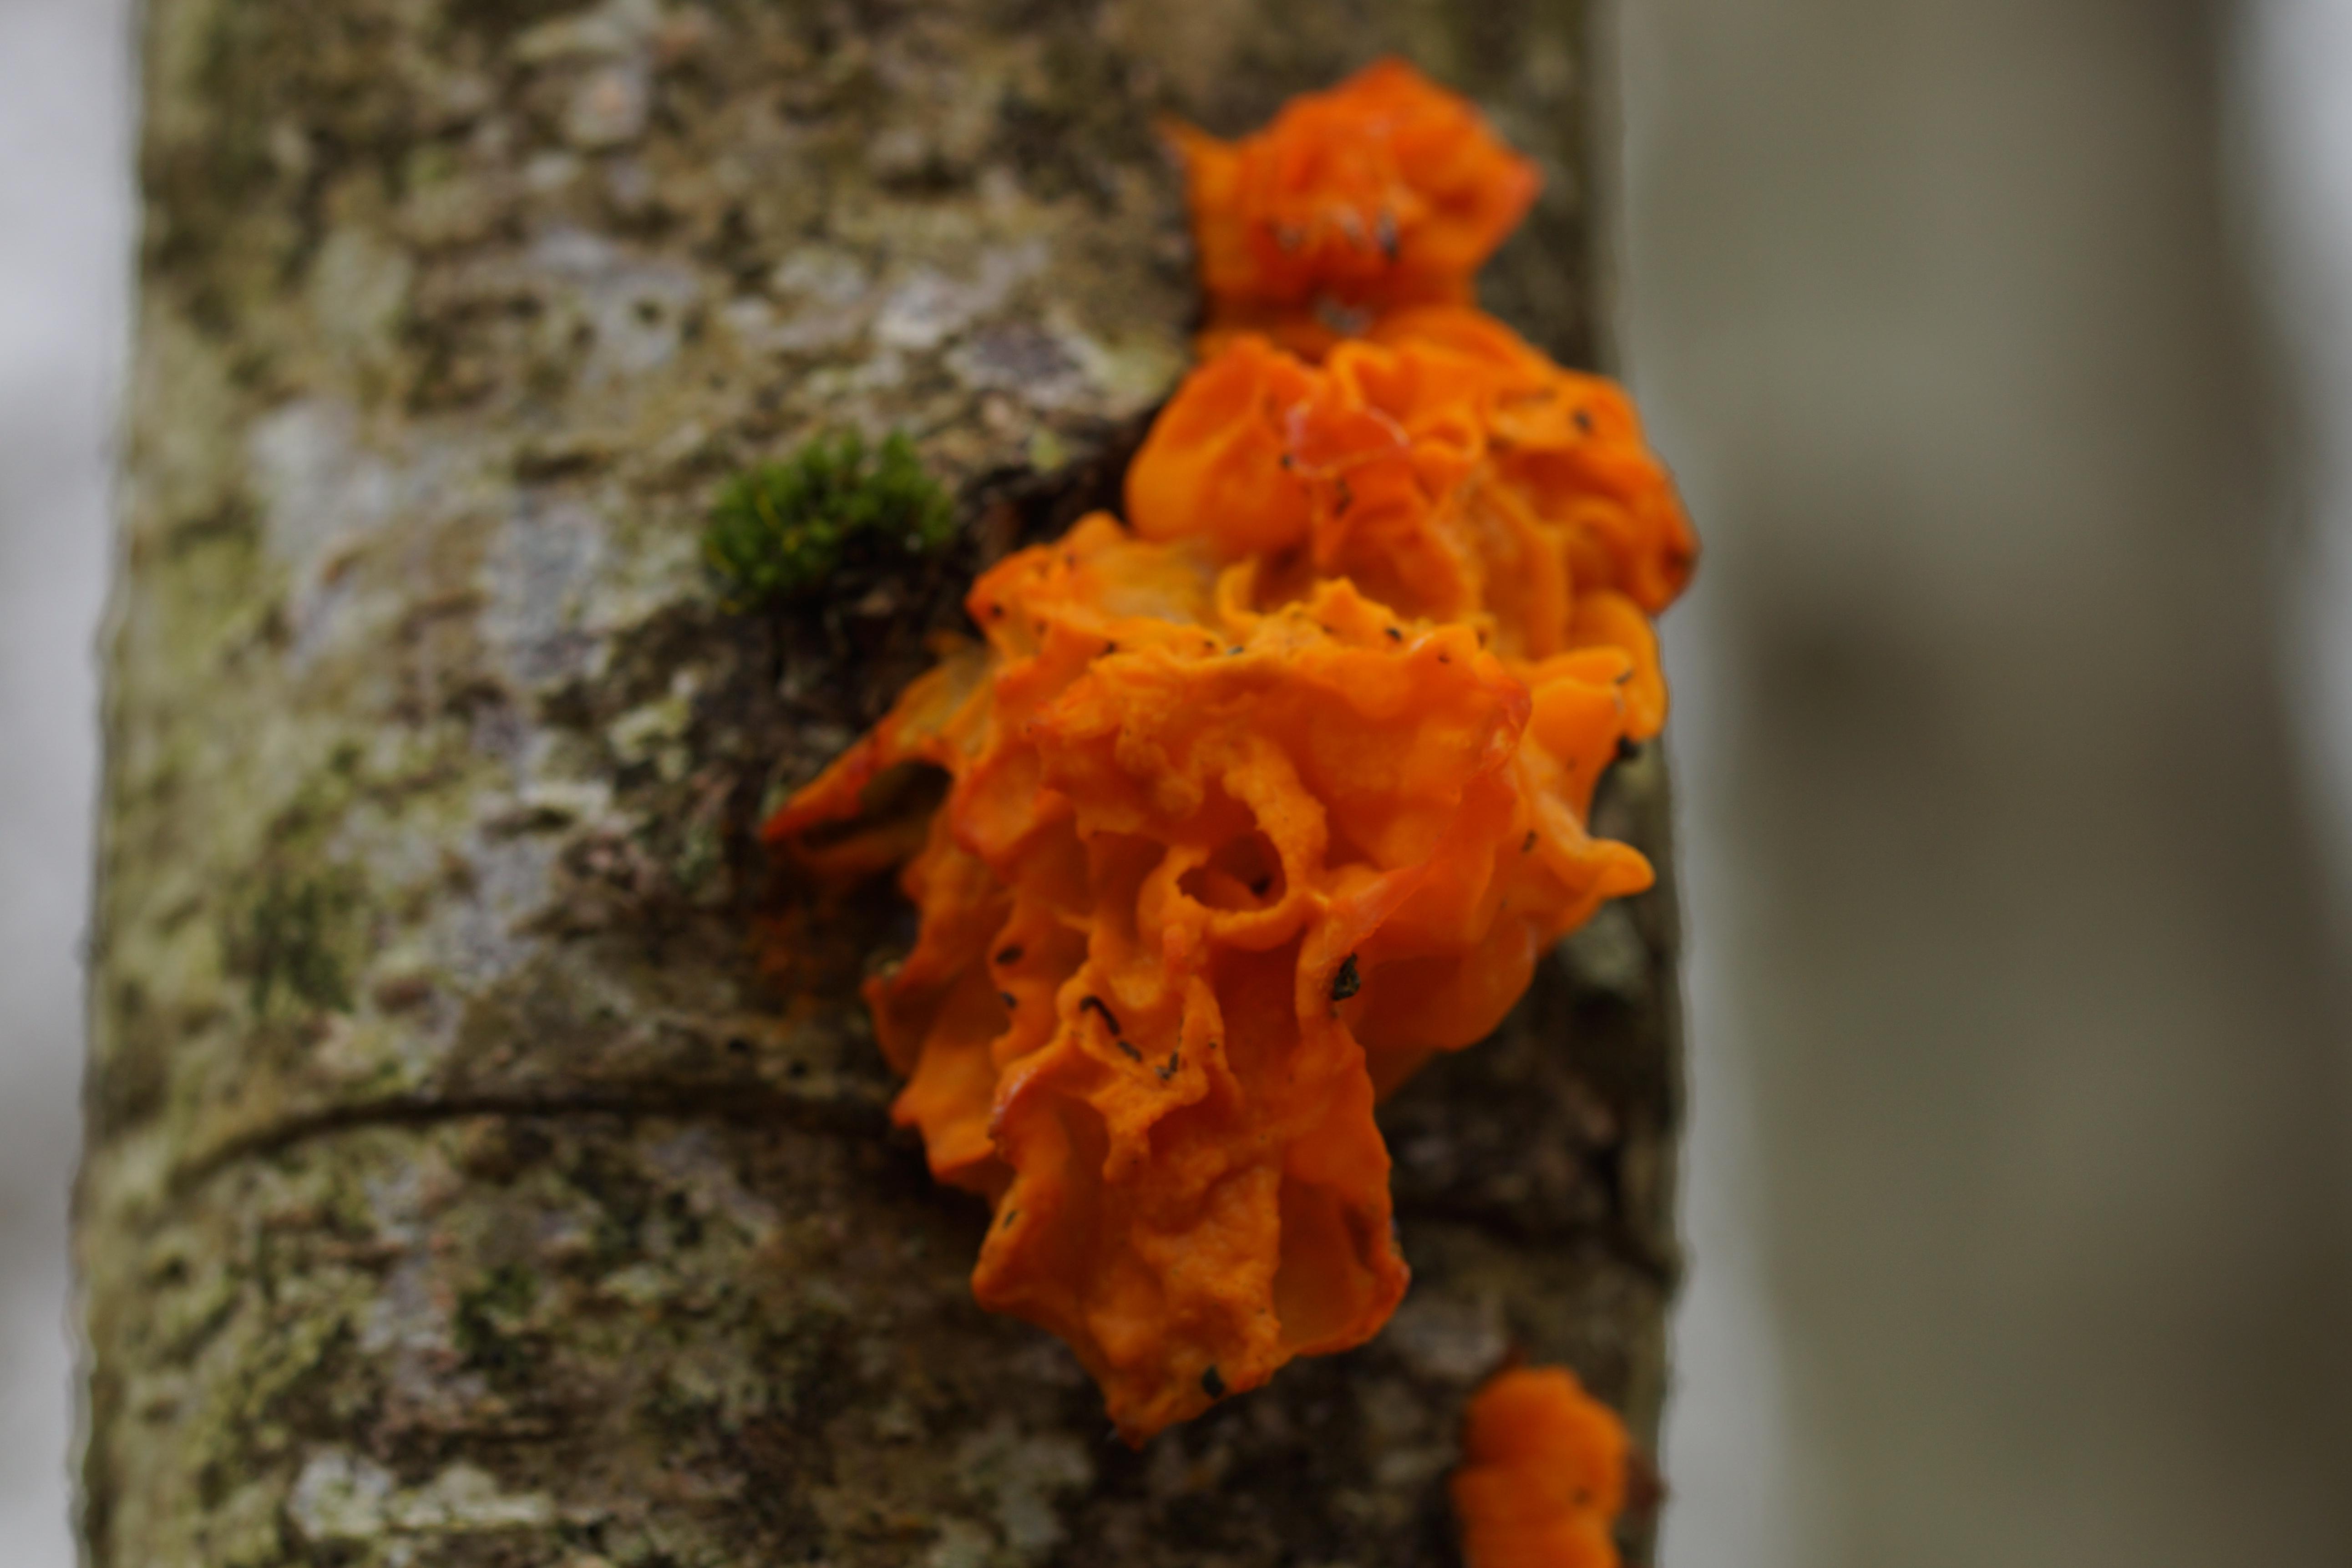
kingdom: Fungi
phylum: Basidiomycota
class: Tremellomycetes
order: Tremellales
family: Tremellaceae
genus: Tremella
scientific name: Tremella mesenterica
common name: gul bævresvamp
